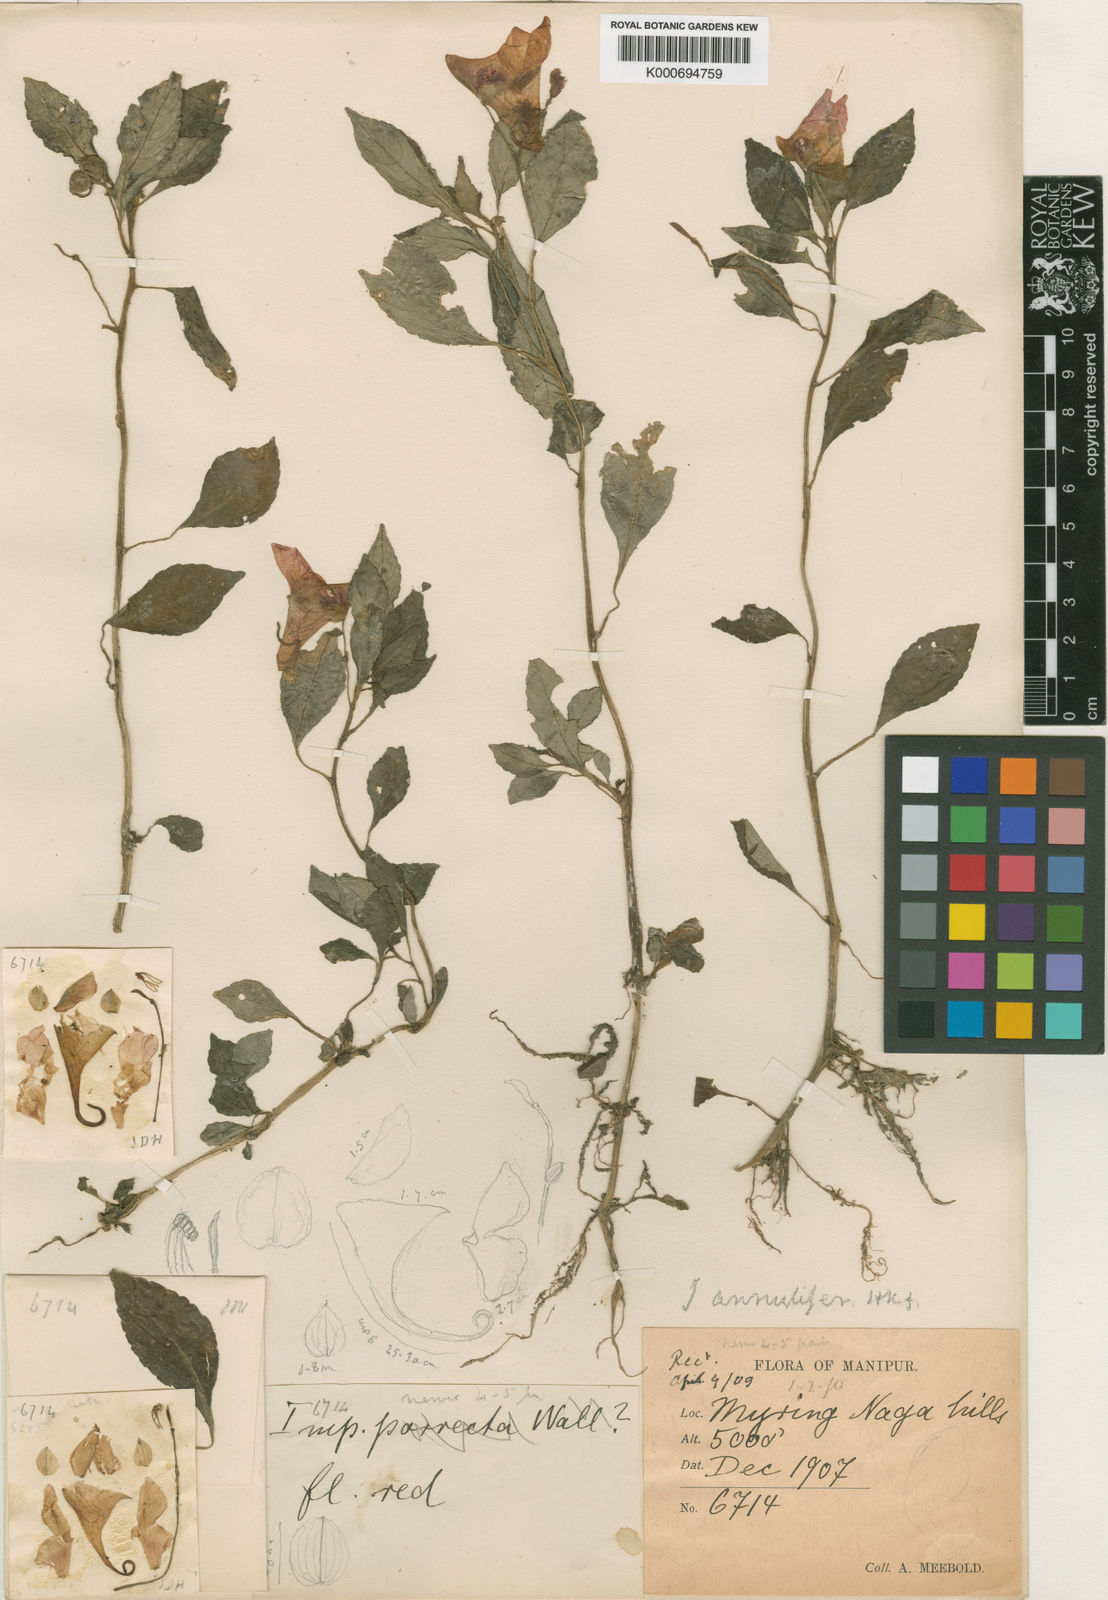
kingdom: Plantae
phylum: Tracheophyta
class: Magnoliopsida
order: Ericales
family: Balsaminaceae
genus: Impatiens
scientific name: Impatiens pulchra
